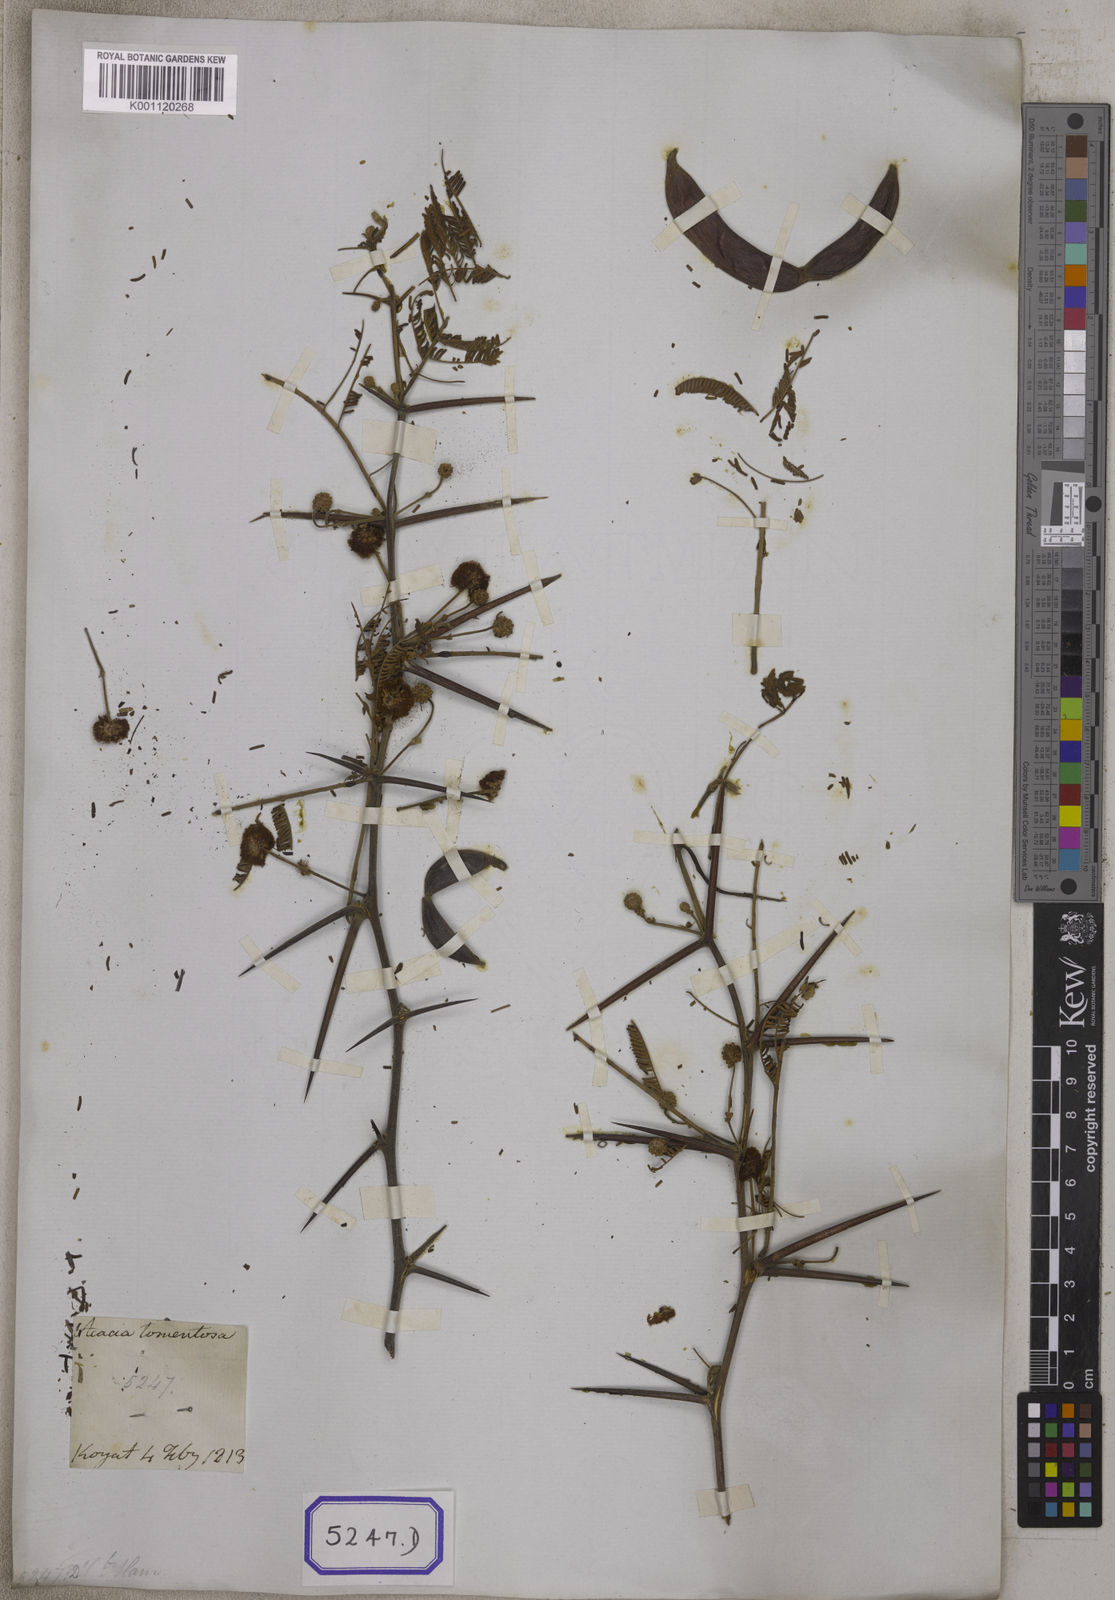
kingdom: Plantae
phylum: Tracheophyta
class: Magnoliopsida
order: Fabales
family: Fabaceae
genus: Vachellia
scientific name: Vachellia tomentosa
